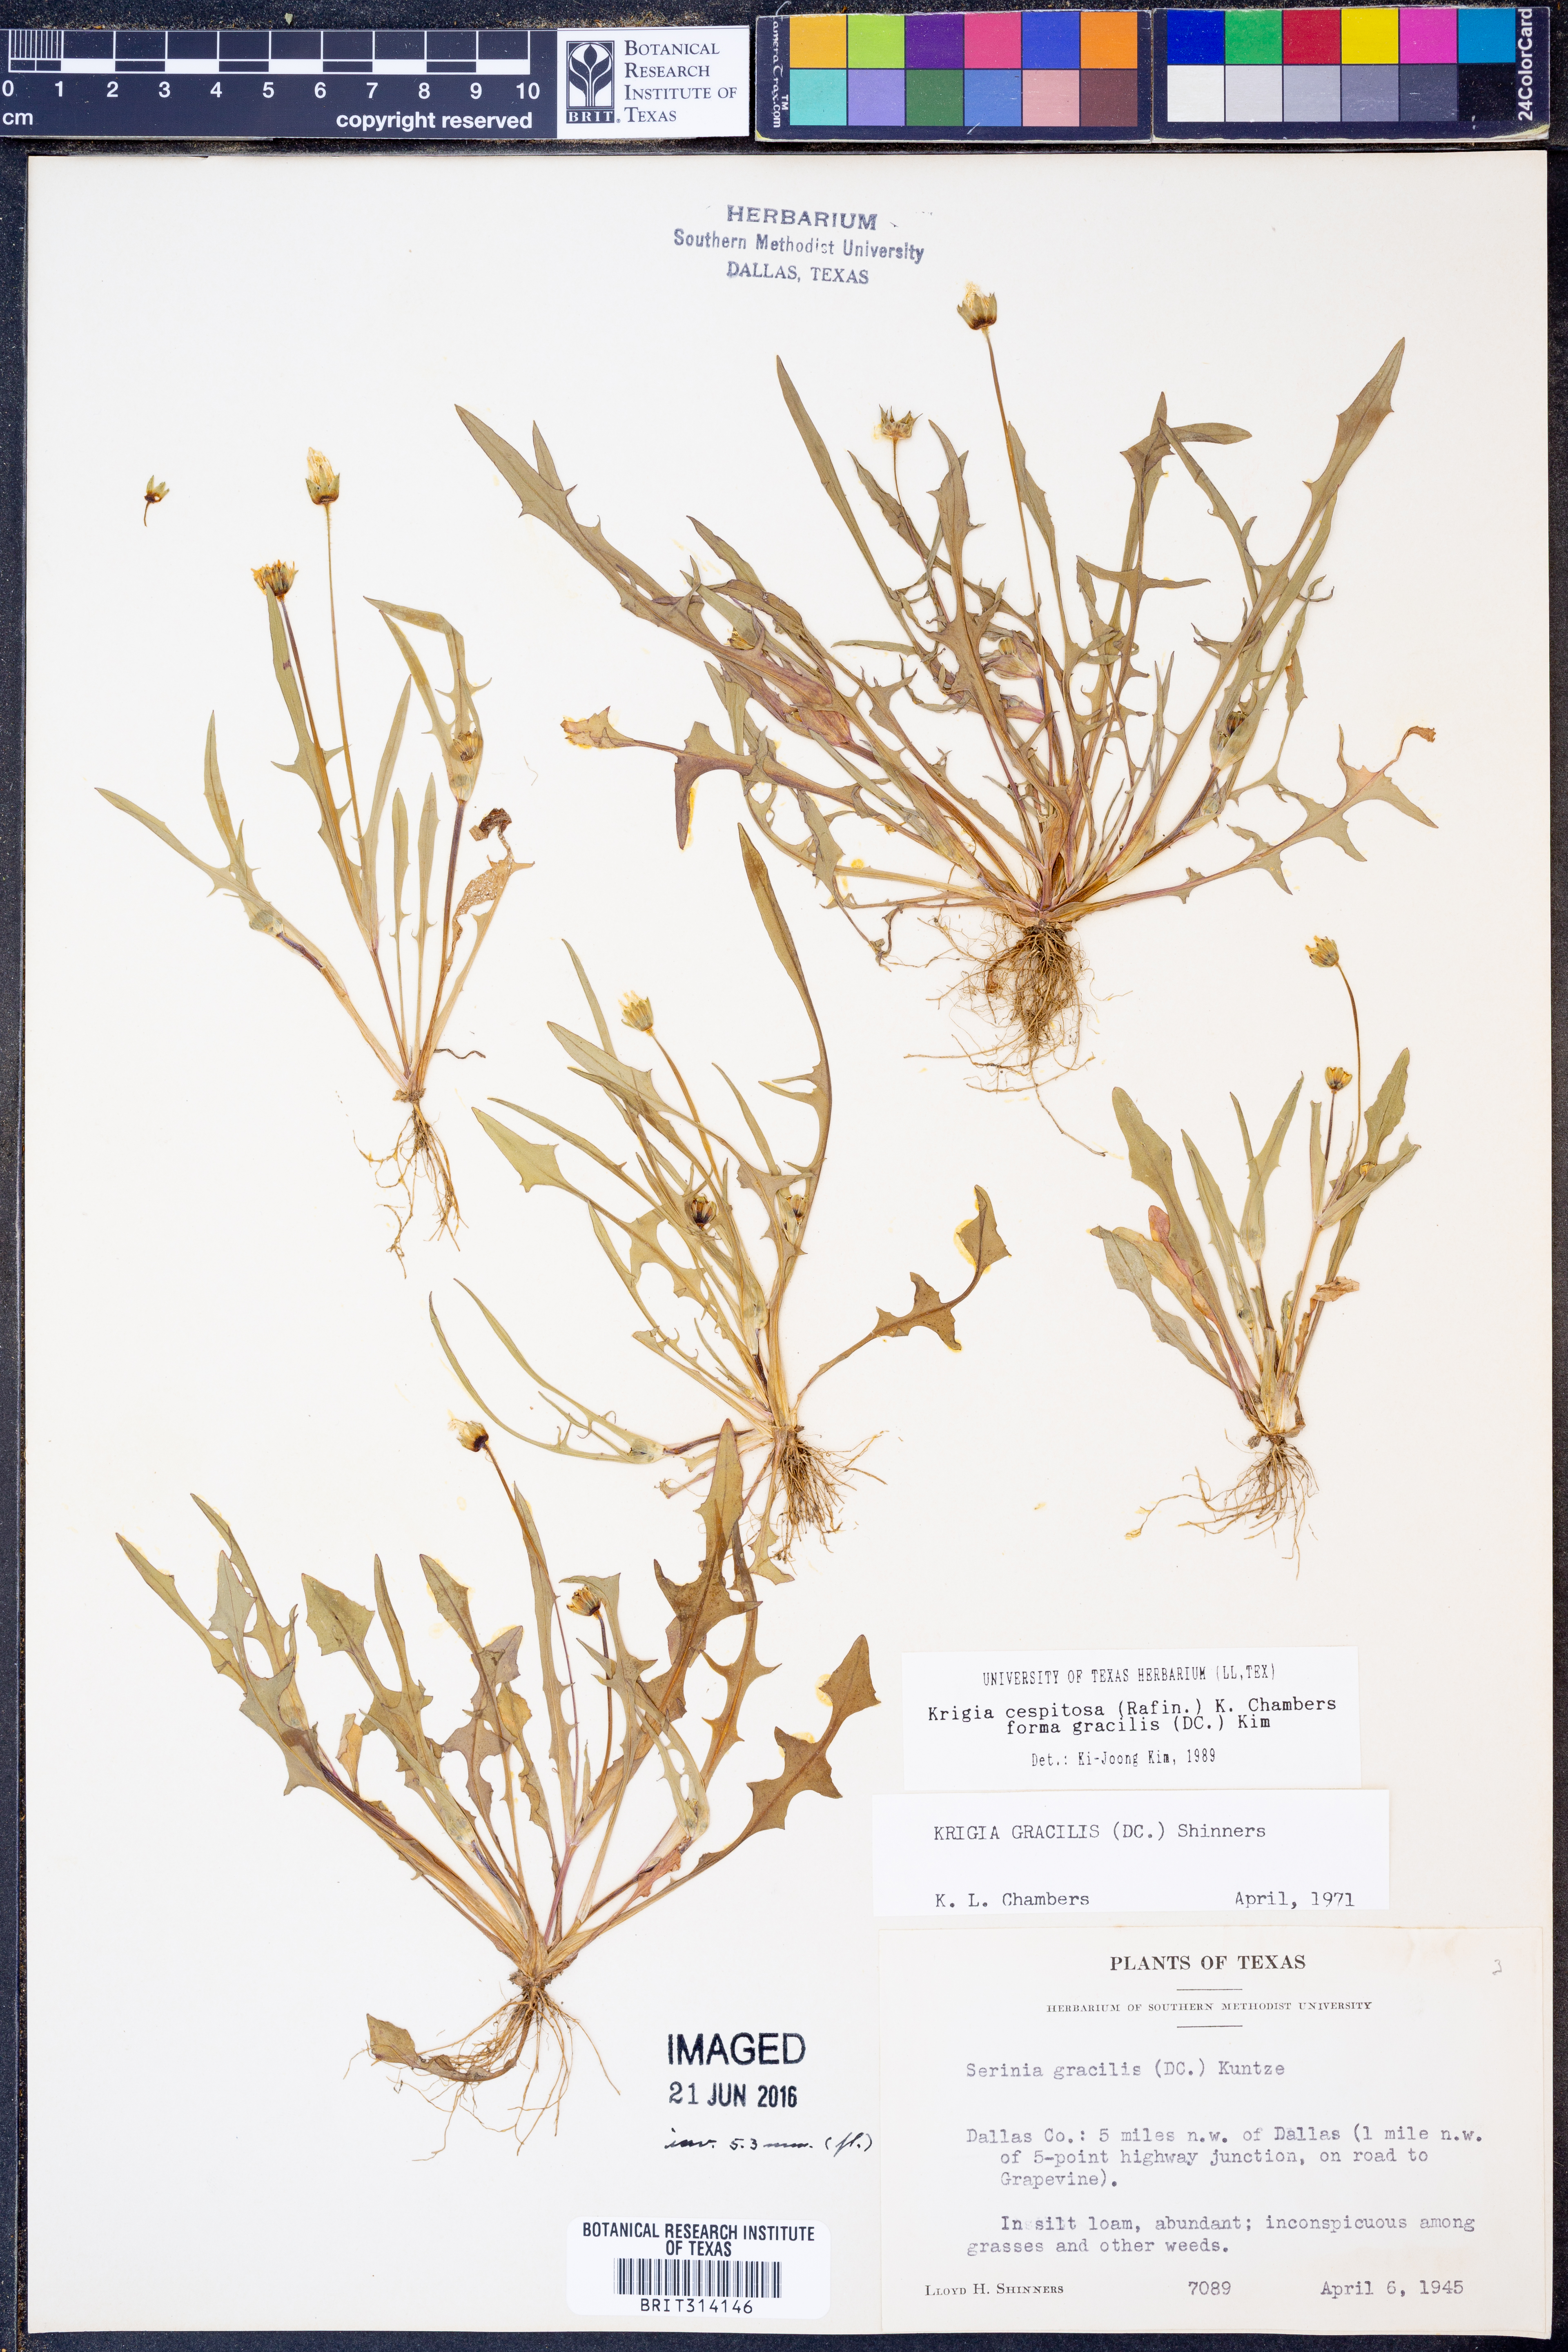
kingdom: Plantae
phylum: Tracheophyta
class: Magnoliopsida
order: Asterales
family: Asteraceae
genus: Krigia
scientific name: Krigia cespitosa
